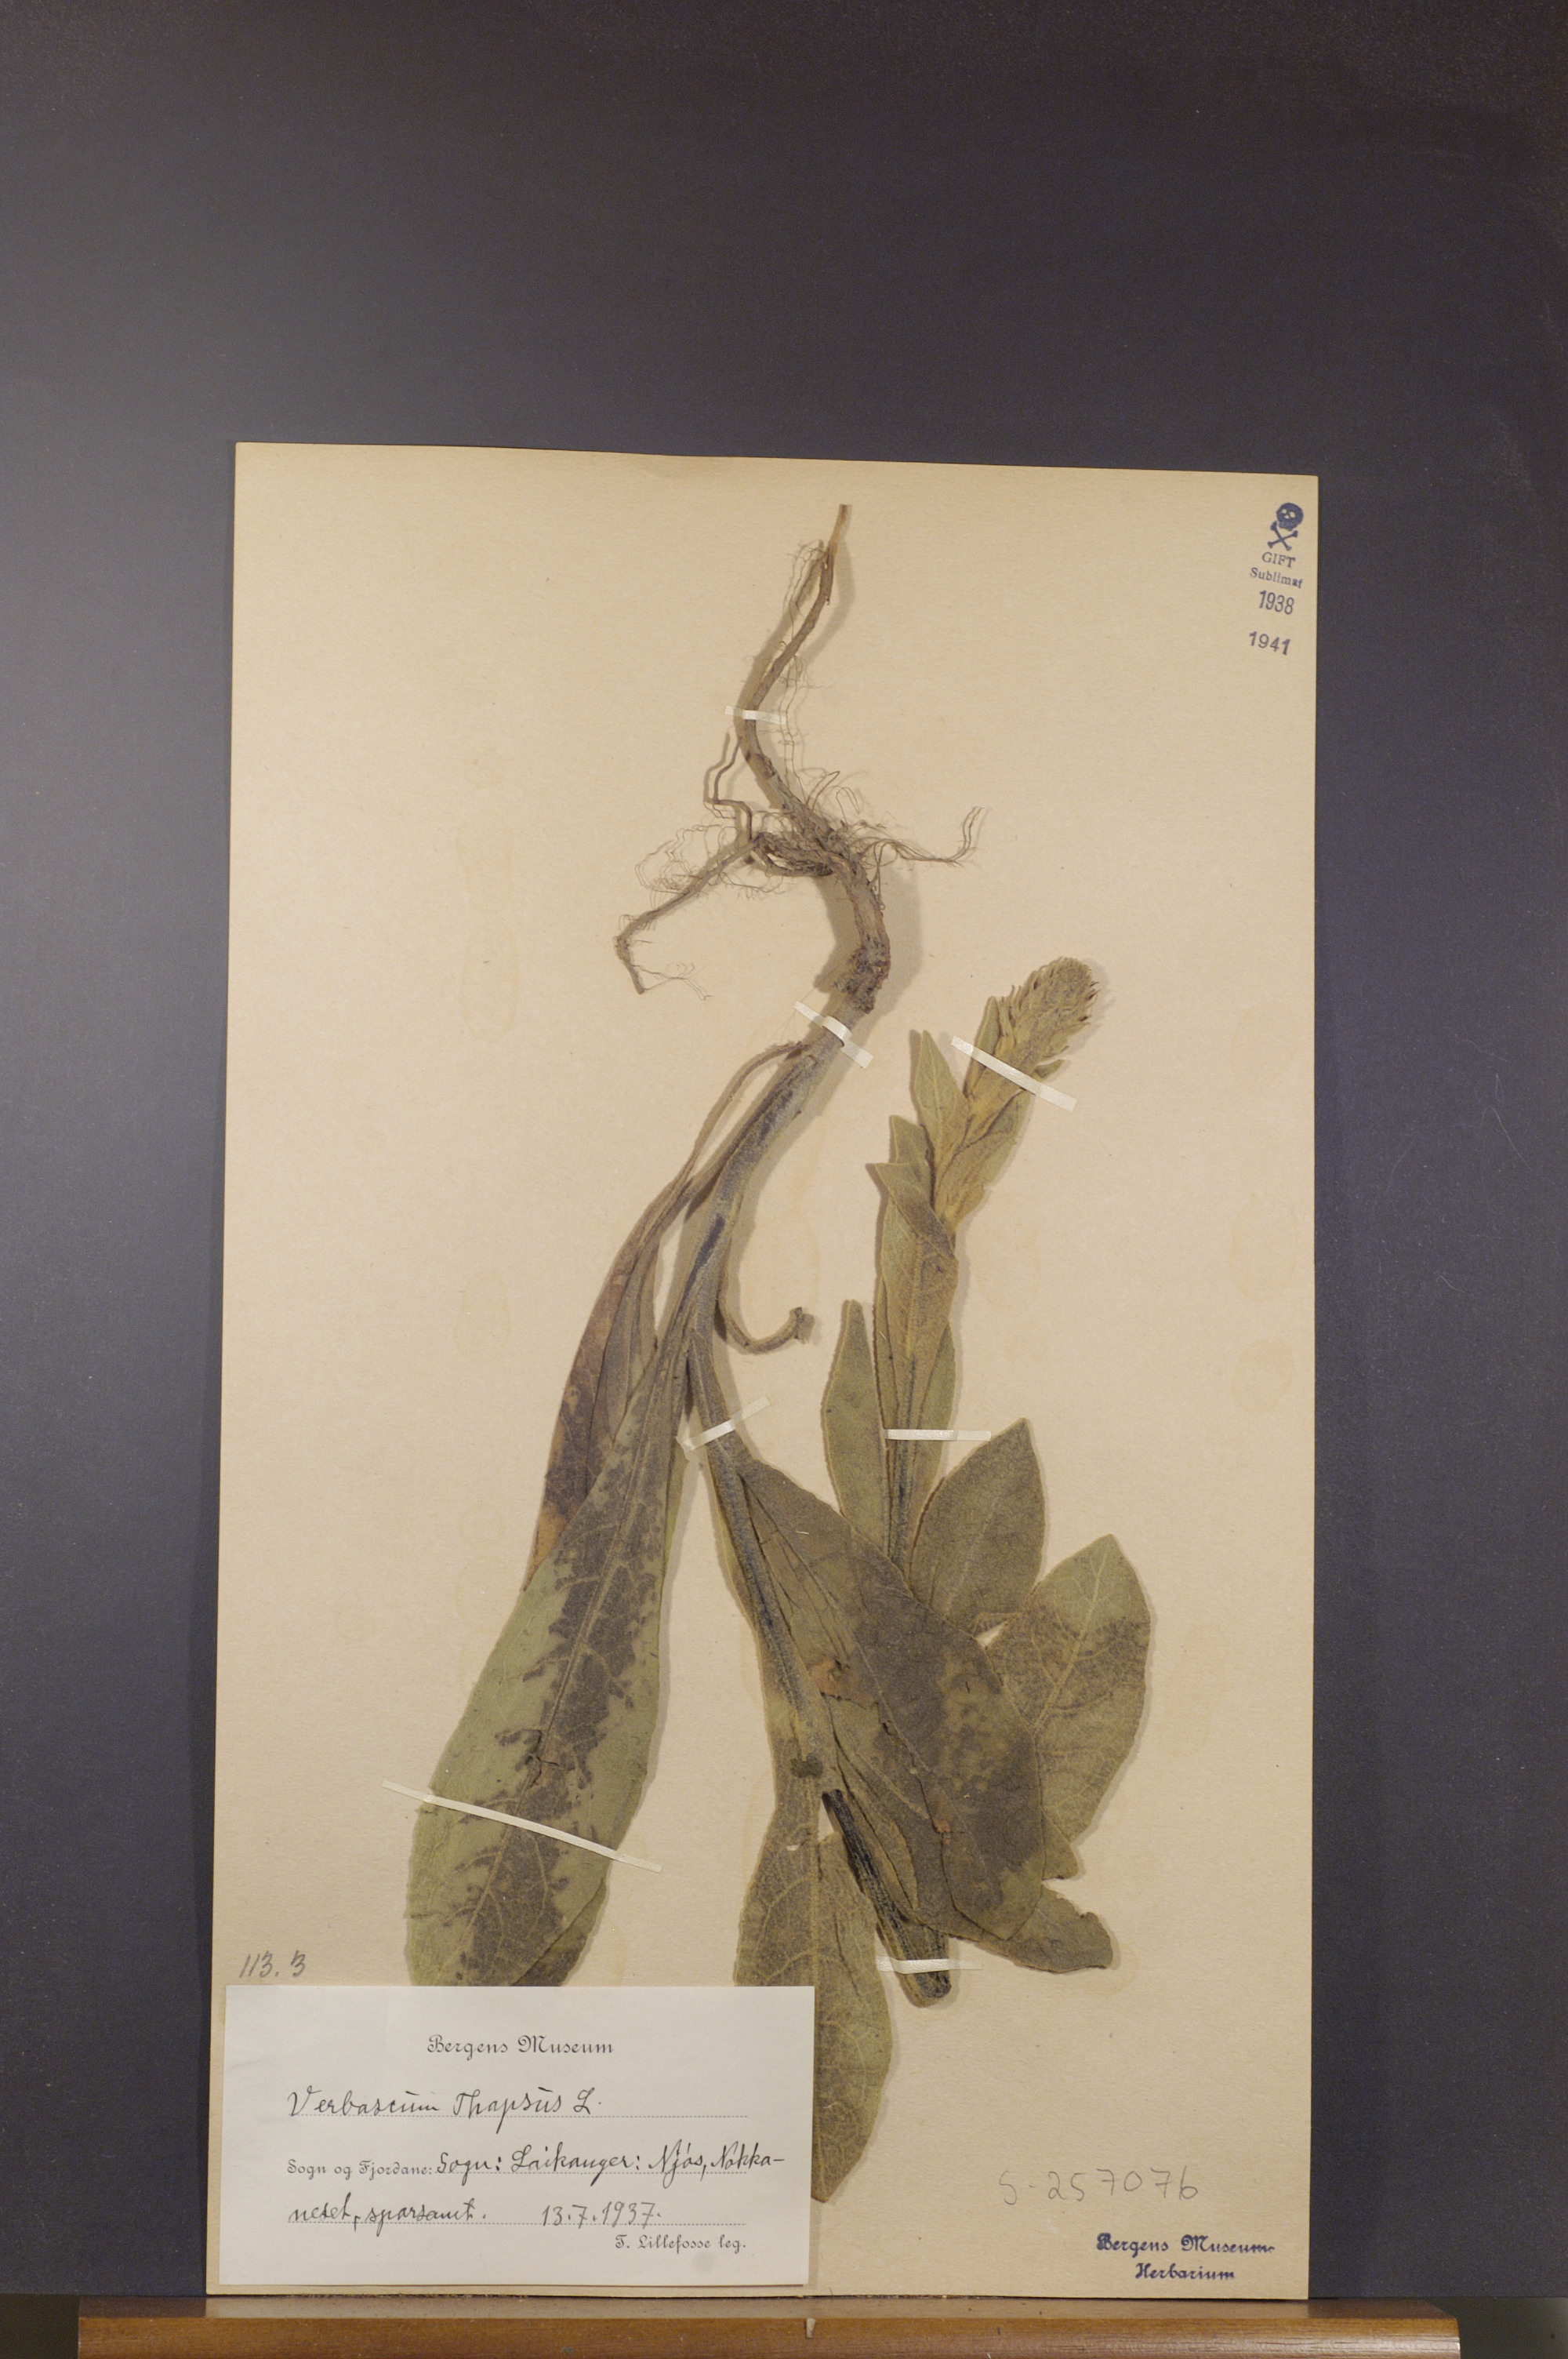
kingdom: Plantae
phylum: Tracheophyta
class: Magnoliopsida
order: Lamiales
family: Scrophulariaceae
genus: Verbascum
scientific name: Verbascum thapsus
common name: Common mullein
